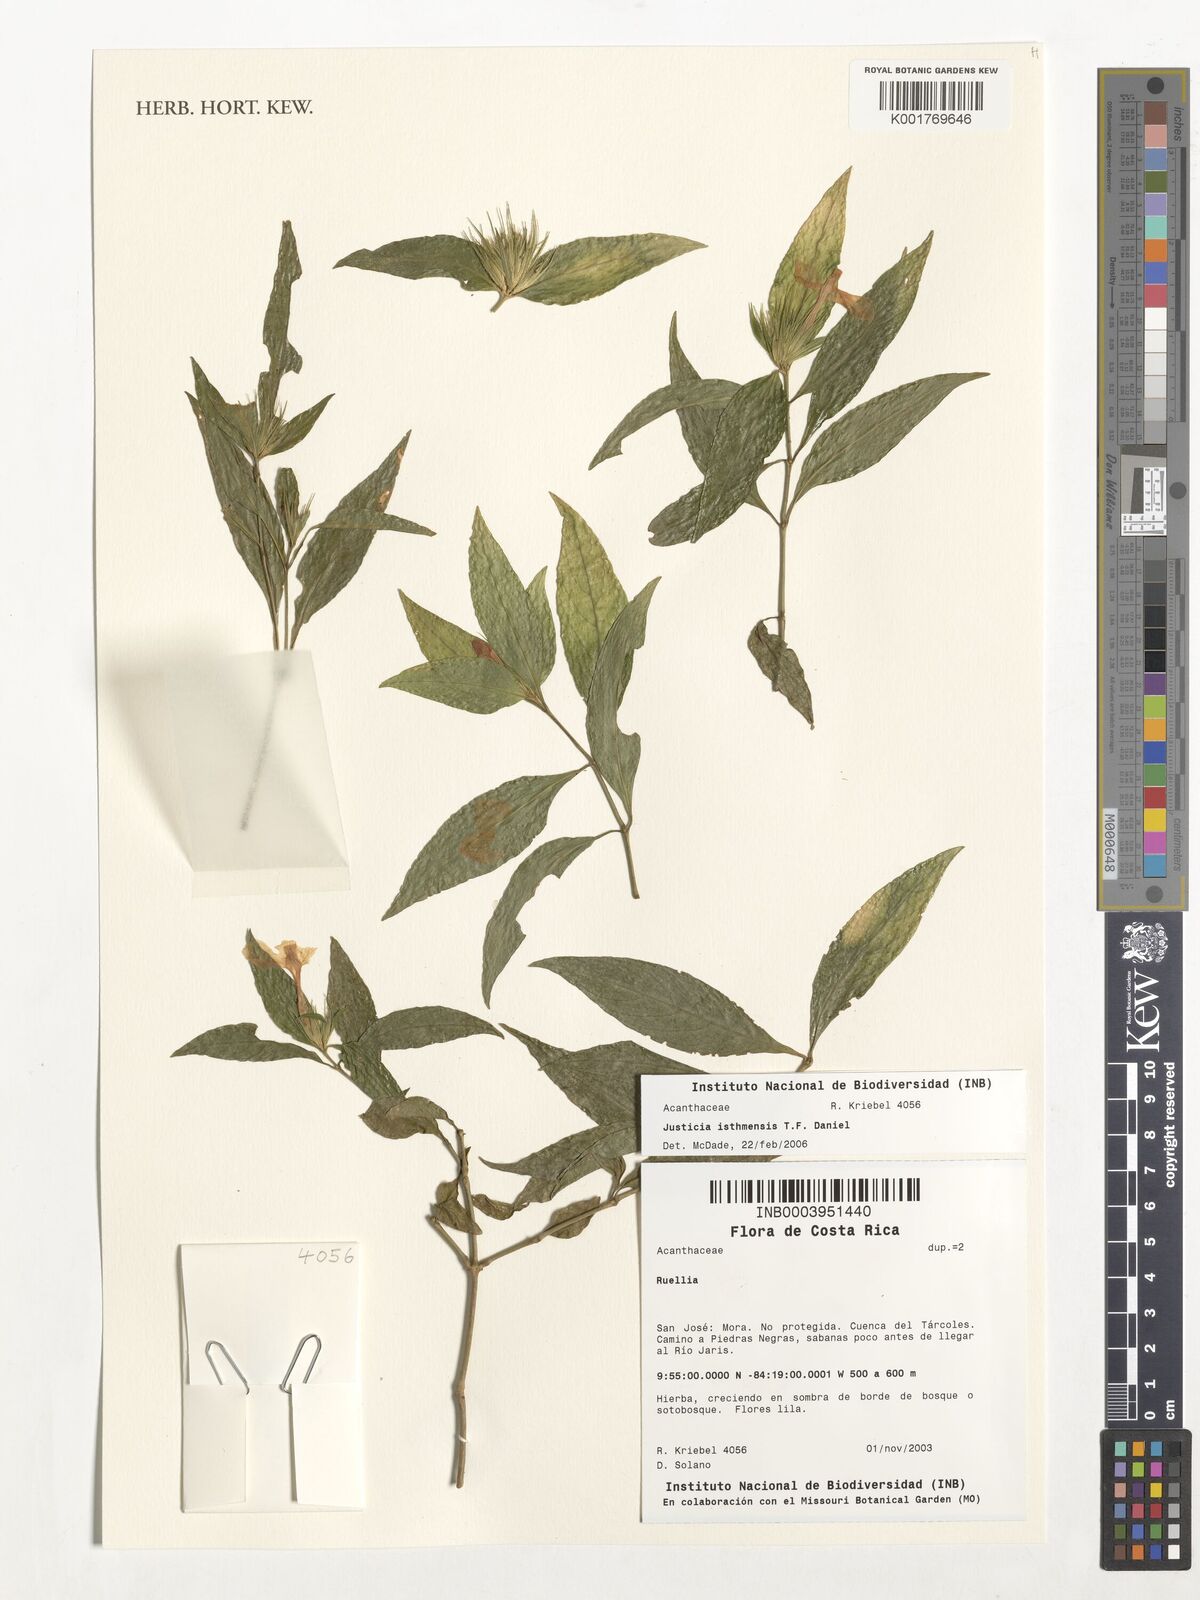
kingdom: Plantae
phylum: Tracheophyta
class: Magnoliopsida
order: Lamiales
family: Acanthaceae
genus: Justicia
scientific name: Justicia isthmensis
